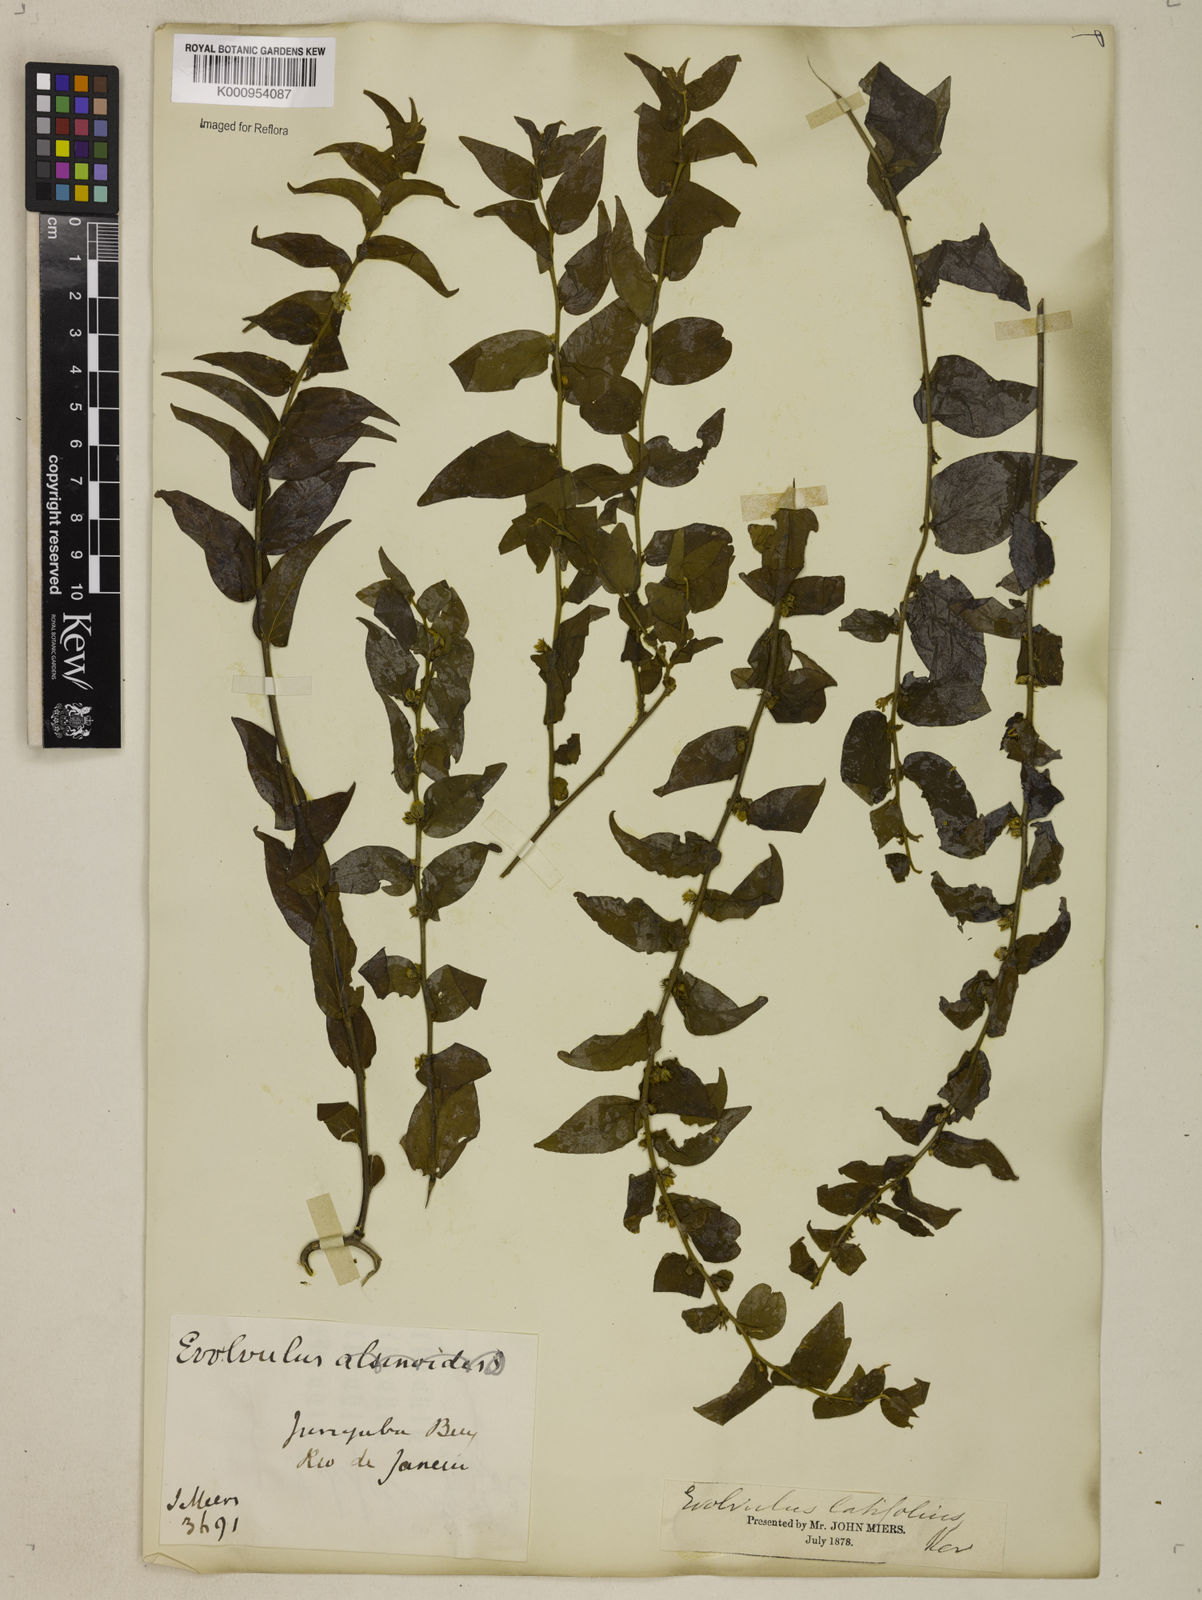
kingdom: Plantae
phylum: Tracheophyta
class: Magnoliopsida
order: Solanales
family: Convolvulaceae
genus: Evolvulus
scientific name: Evolvulus latifolius
